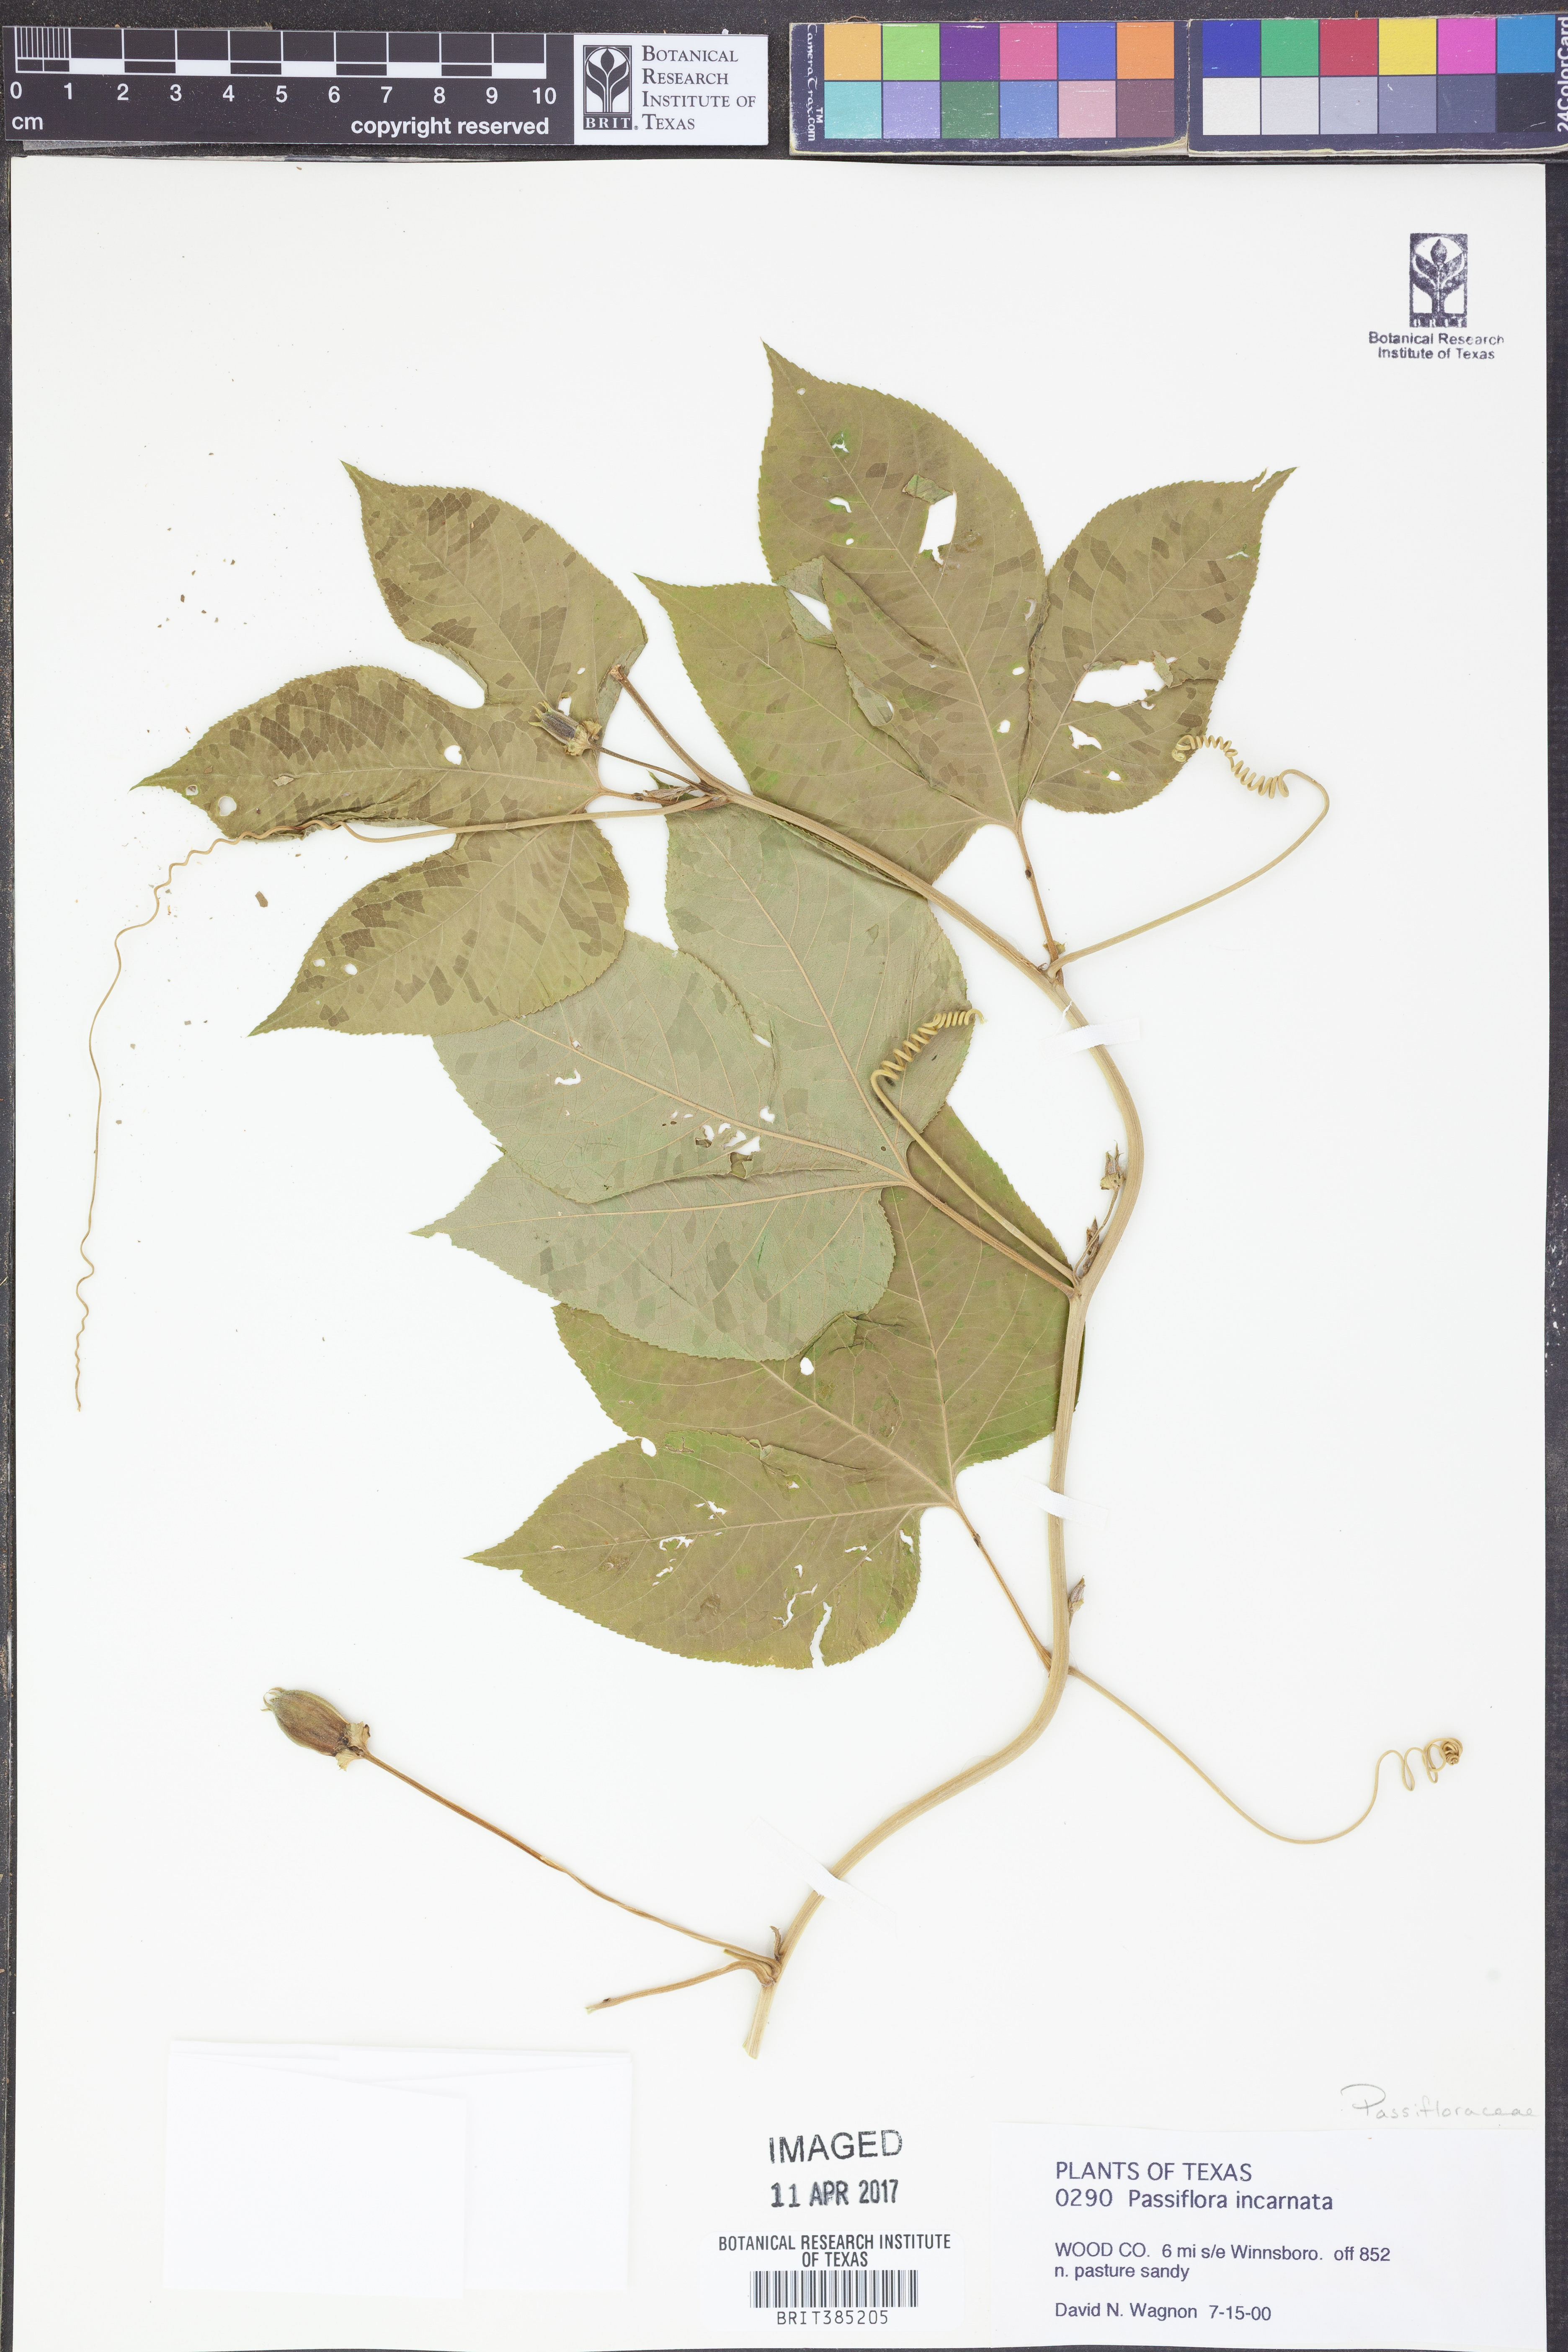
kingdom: Plantae
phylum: Tracheophyta
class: Magnoliopsida
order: Malpighiales
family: Passifloraceae
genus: Passiflora
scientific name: Passiflora incarnata
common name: Apricot-vine
